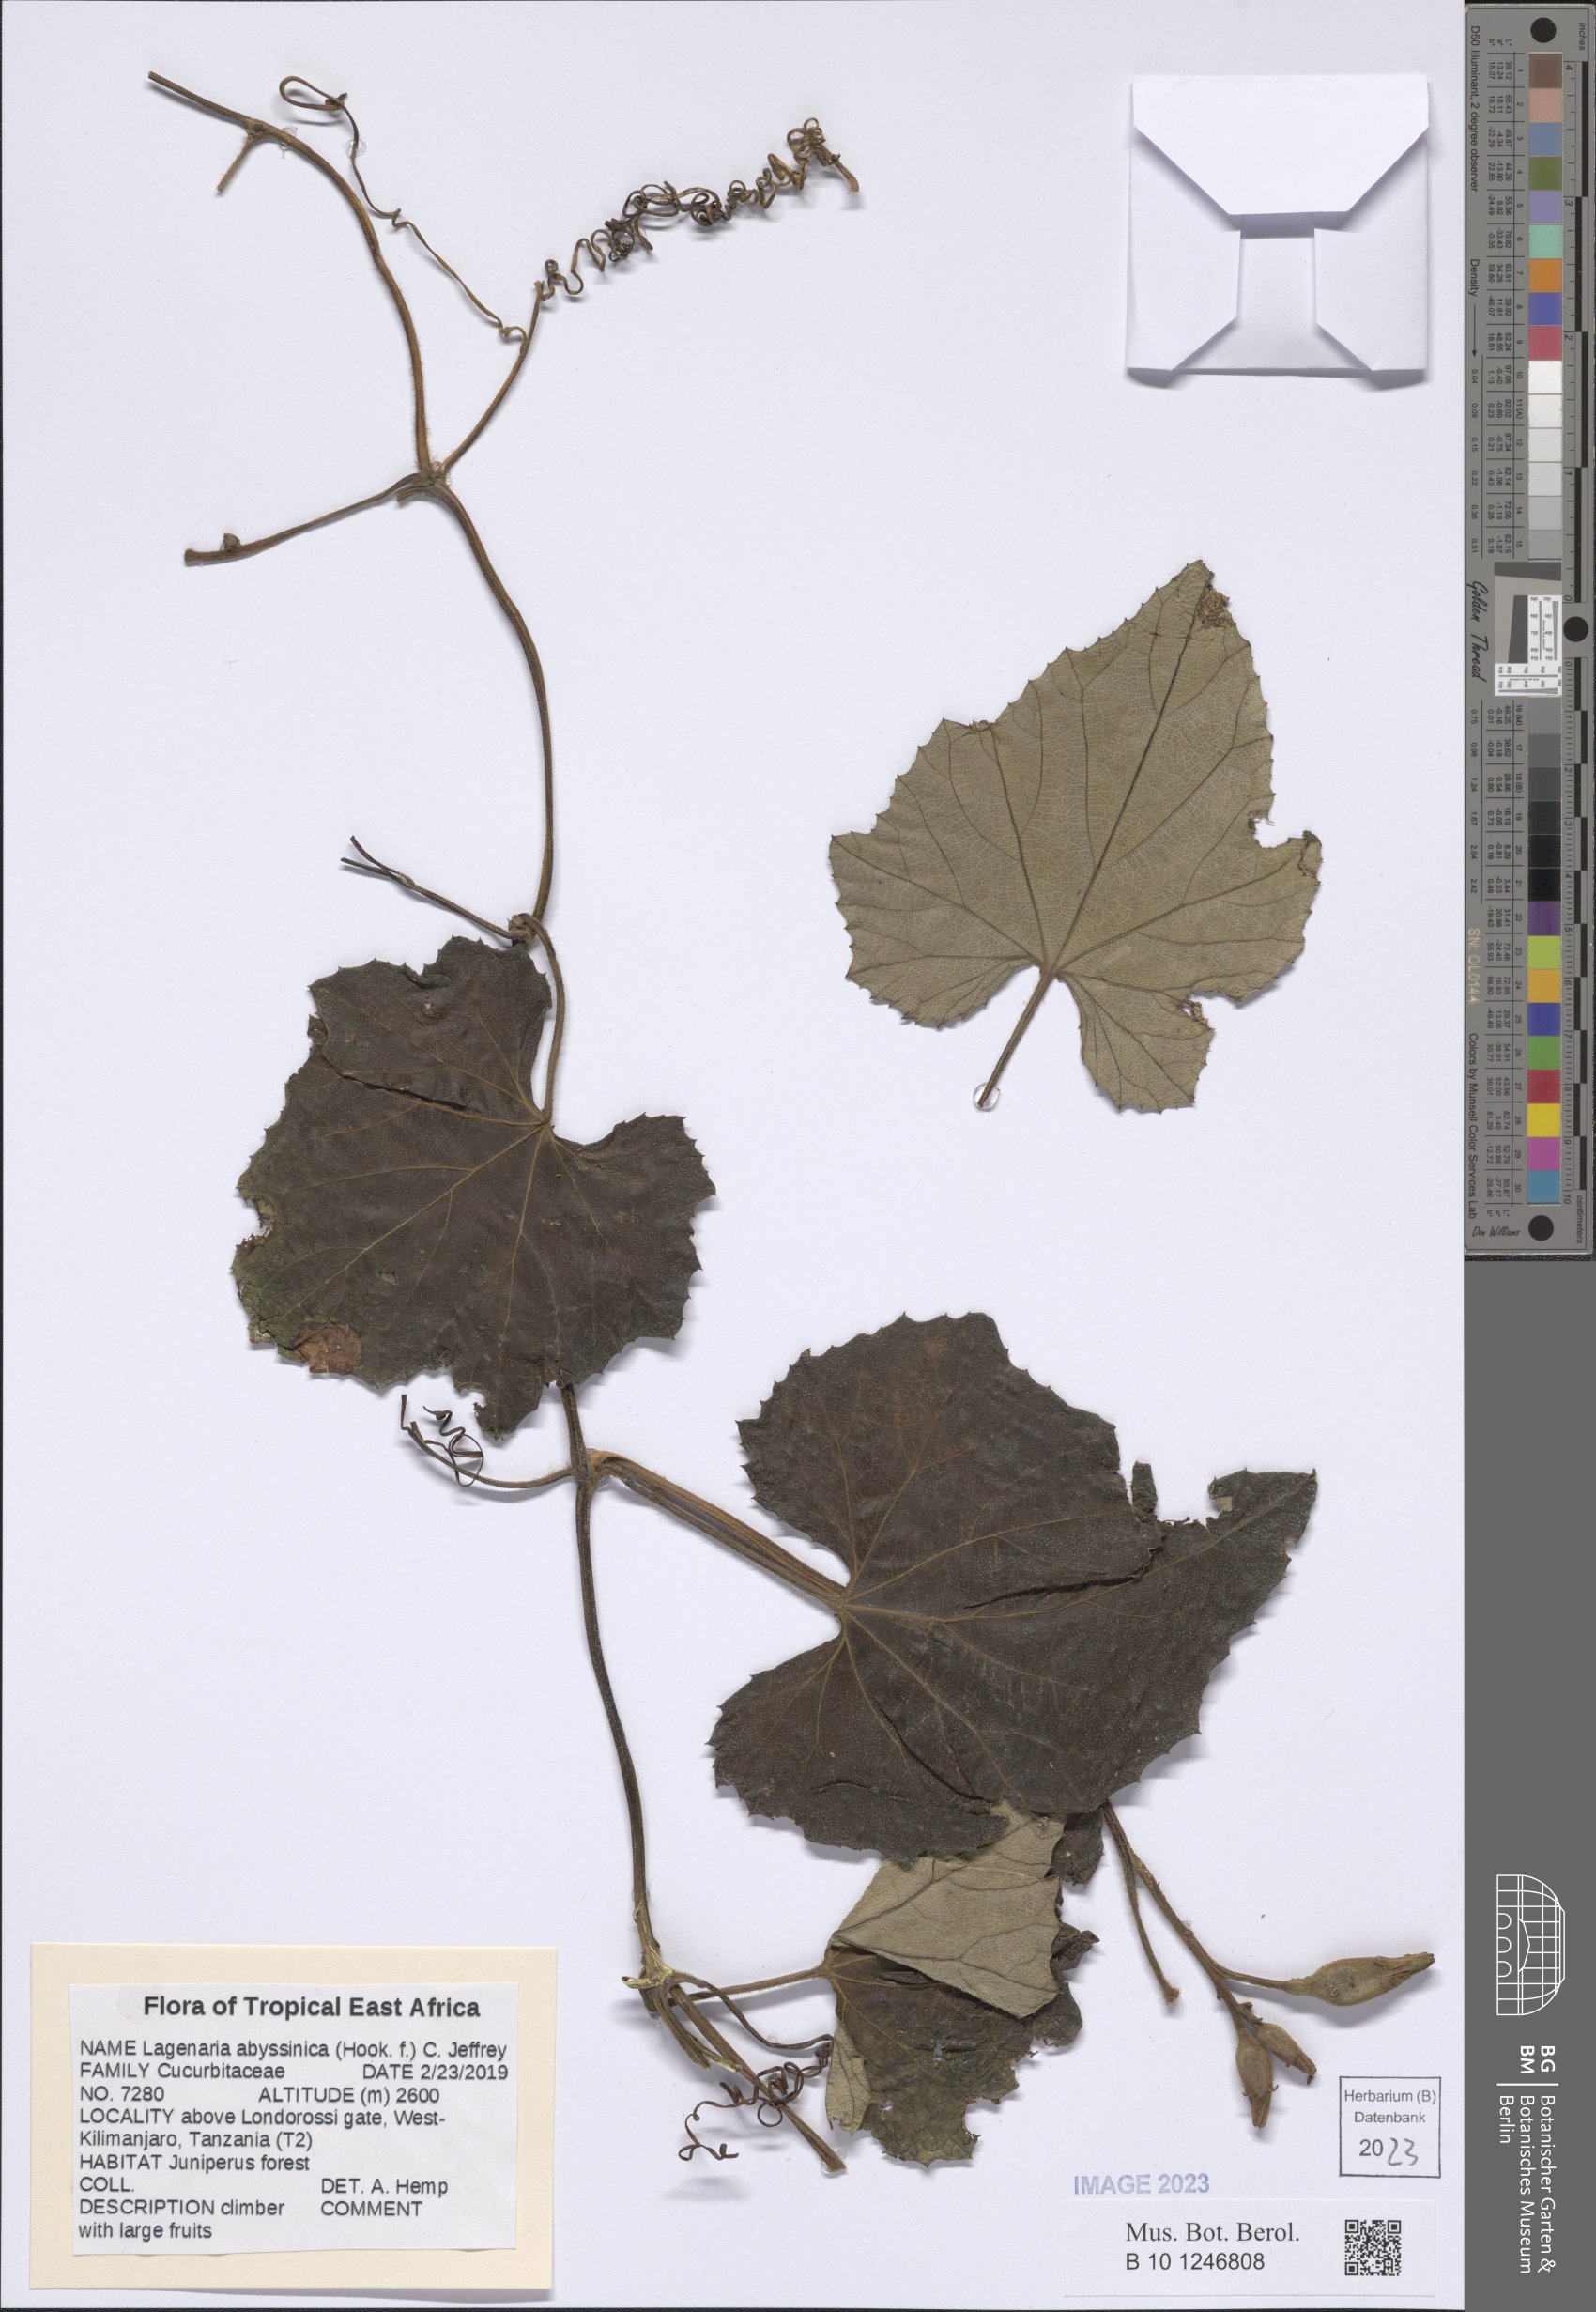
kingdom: Plantae
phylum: Tracheophyta
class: Magnoliopsida
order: Cucurbitales
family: Cucurbitaceae
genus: Lagenaria
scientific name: Lagenaria abyssinica
